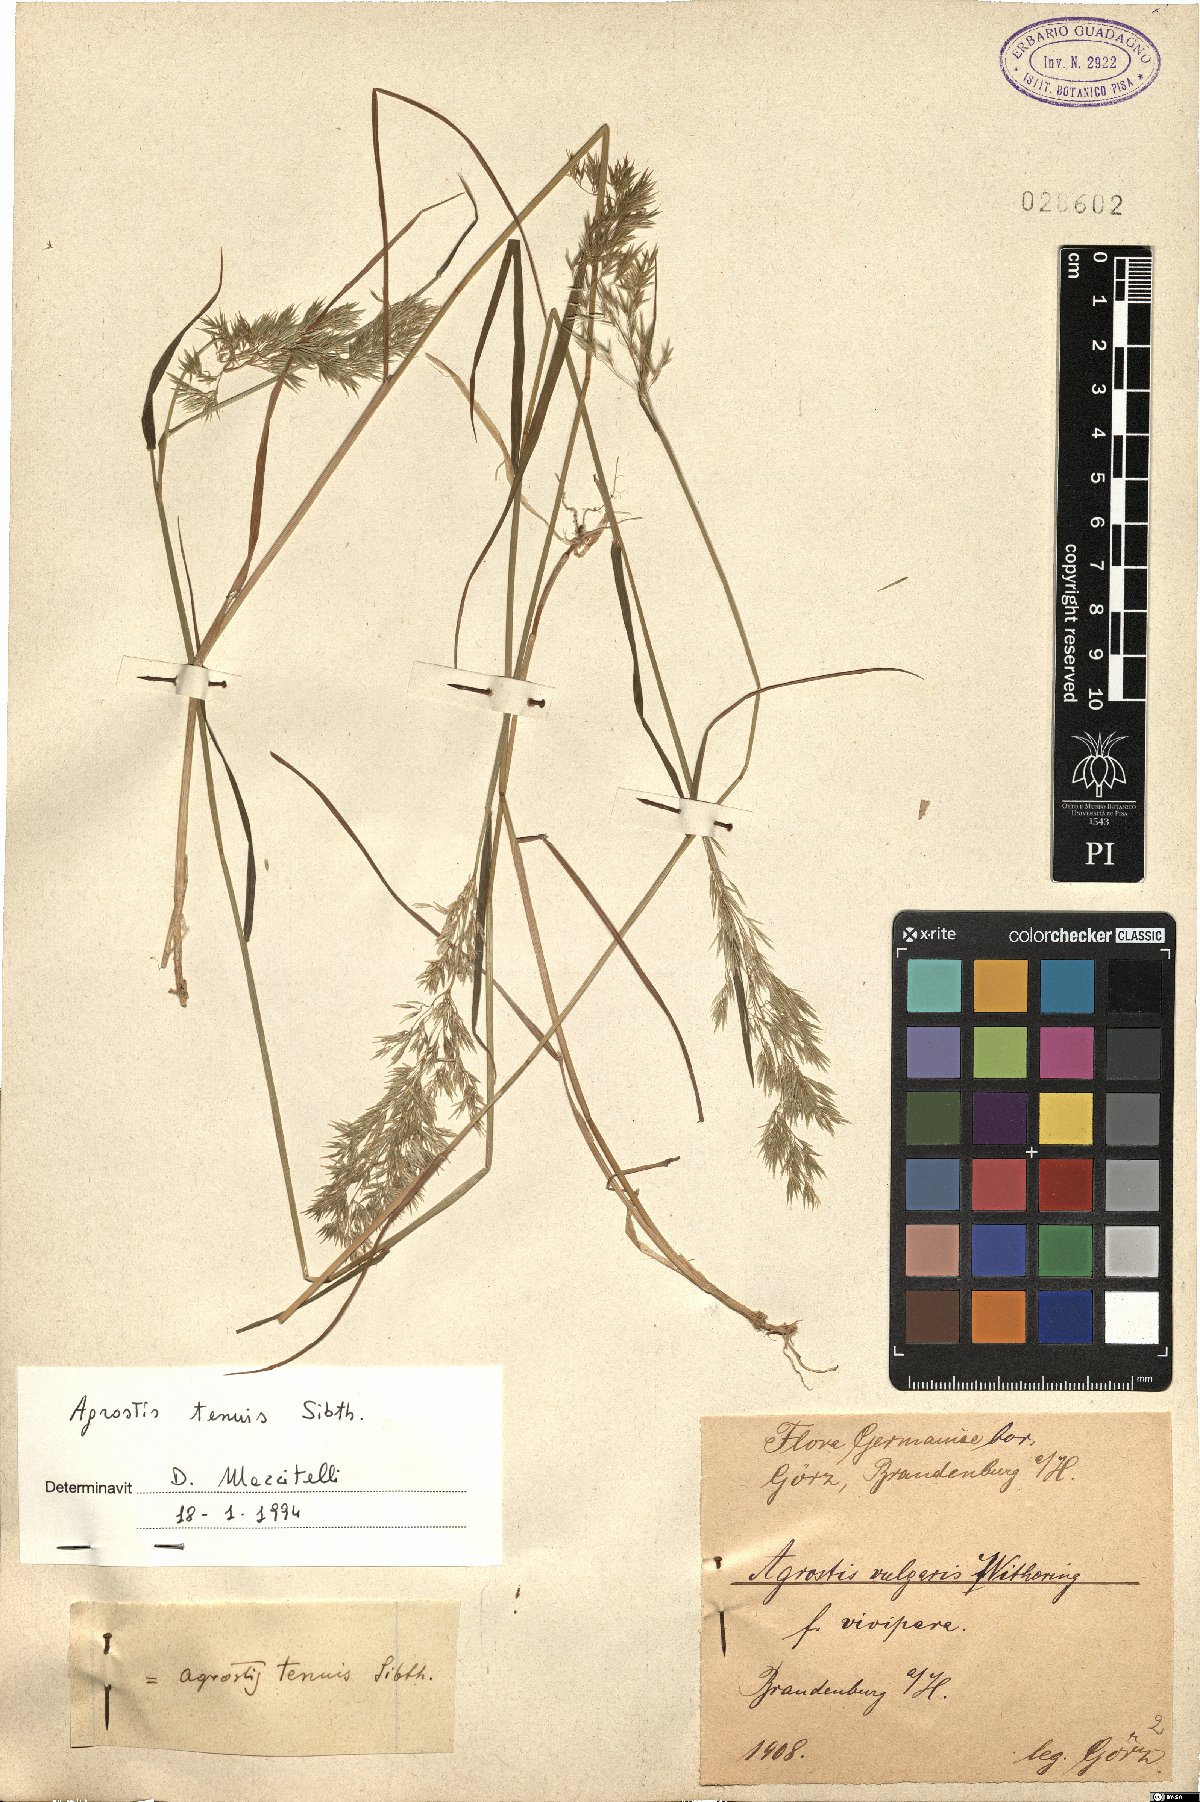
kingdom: Plantae
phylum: Tracheophyta
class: Liliopsida
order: Poales
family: Poaceae
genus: Agrostis
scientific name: Agrostis capillaris
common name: Colonial bentgrass
